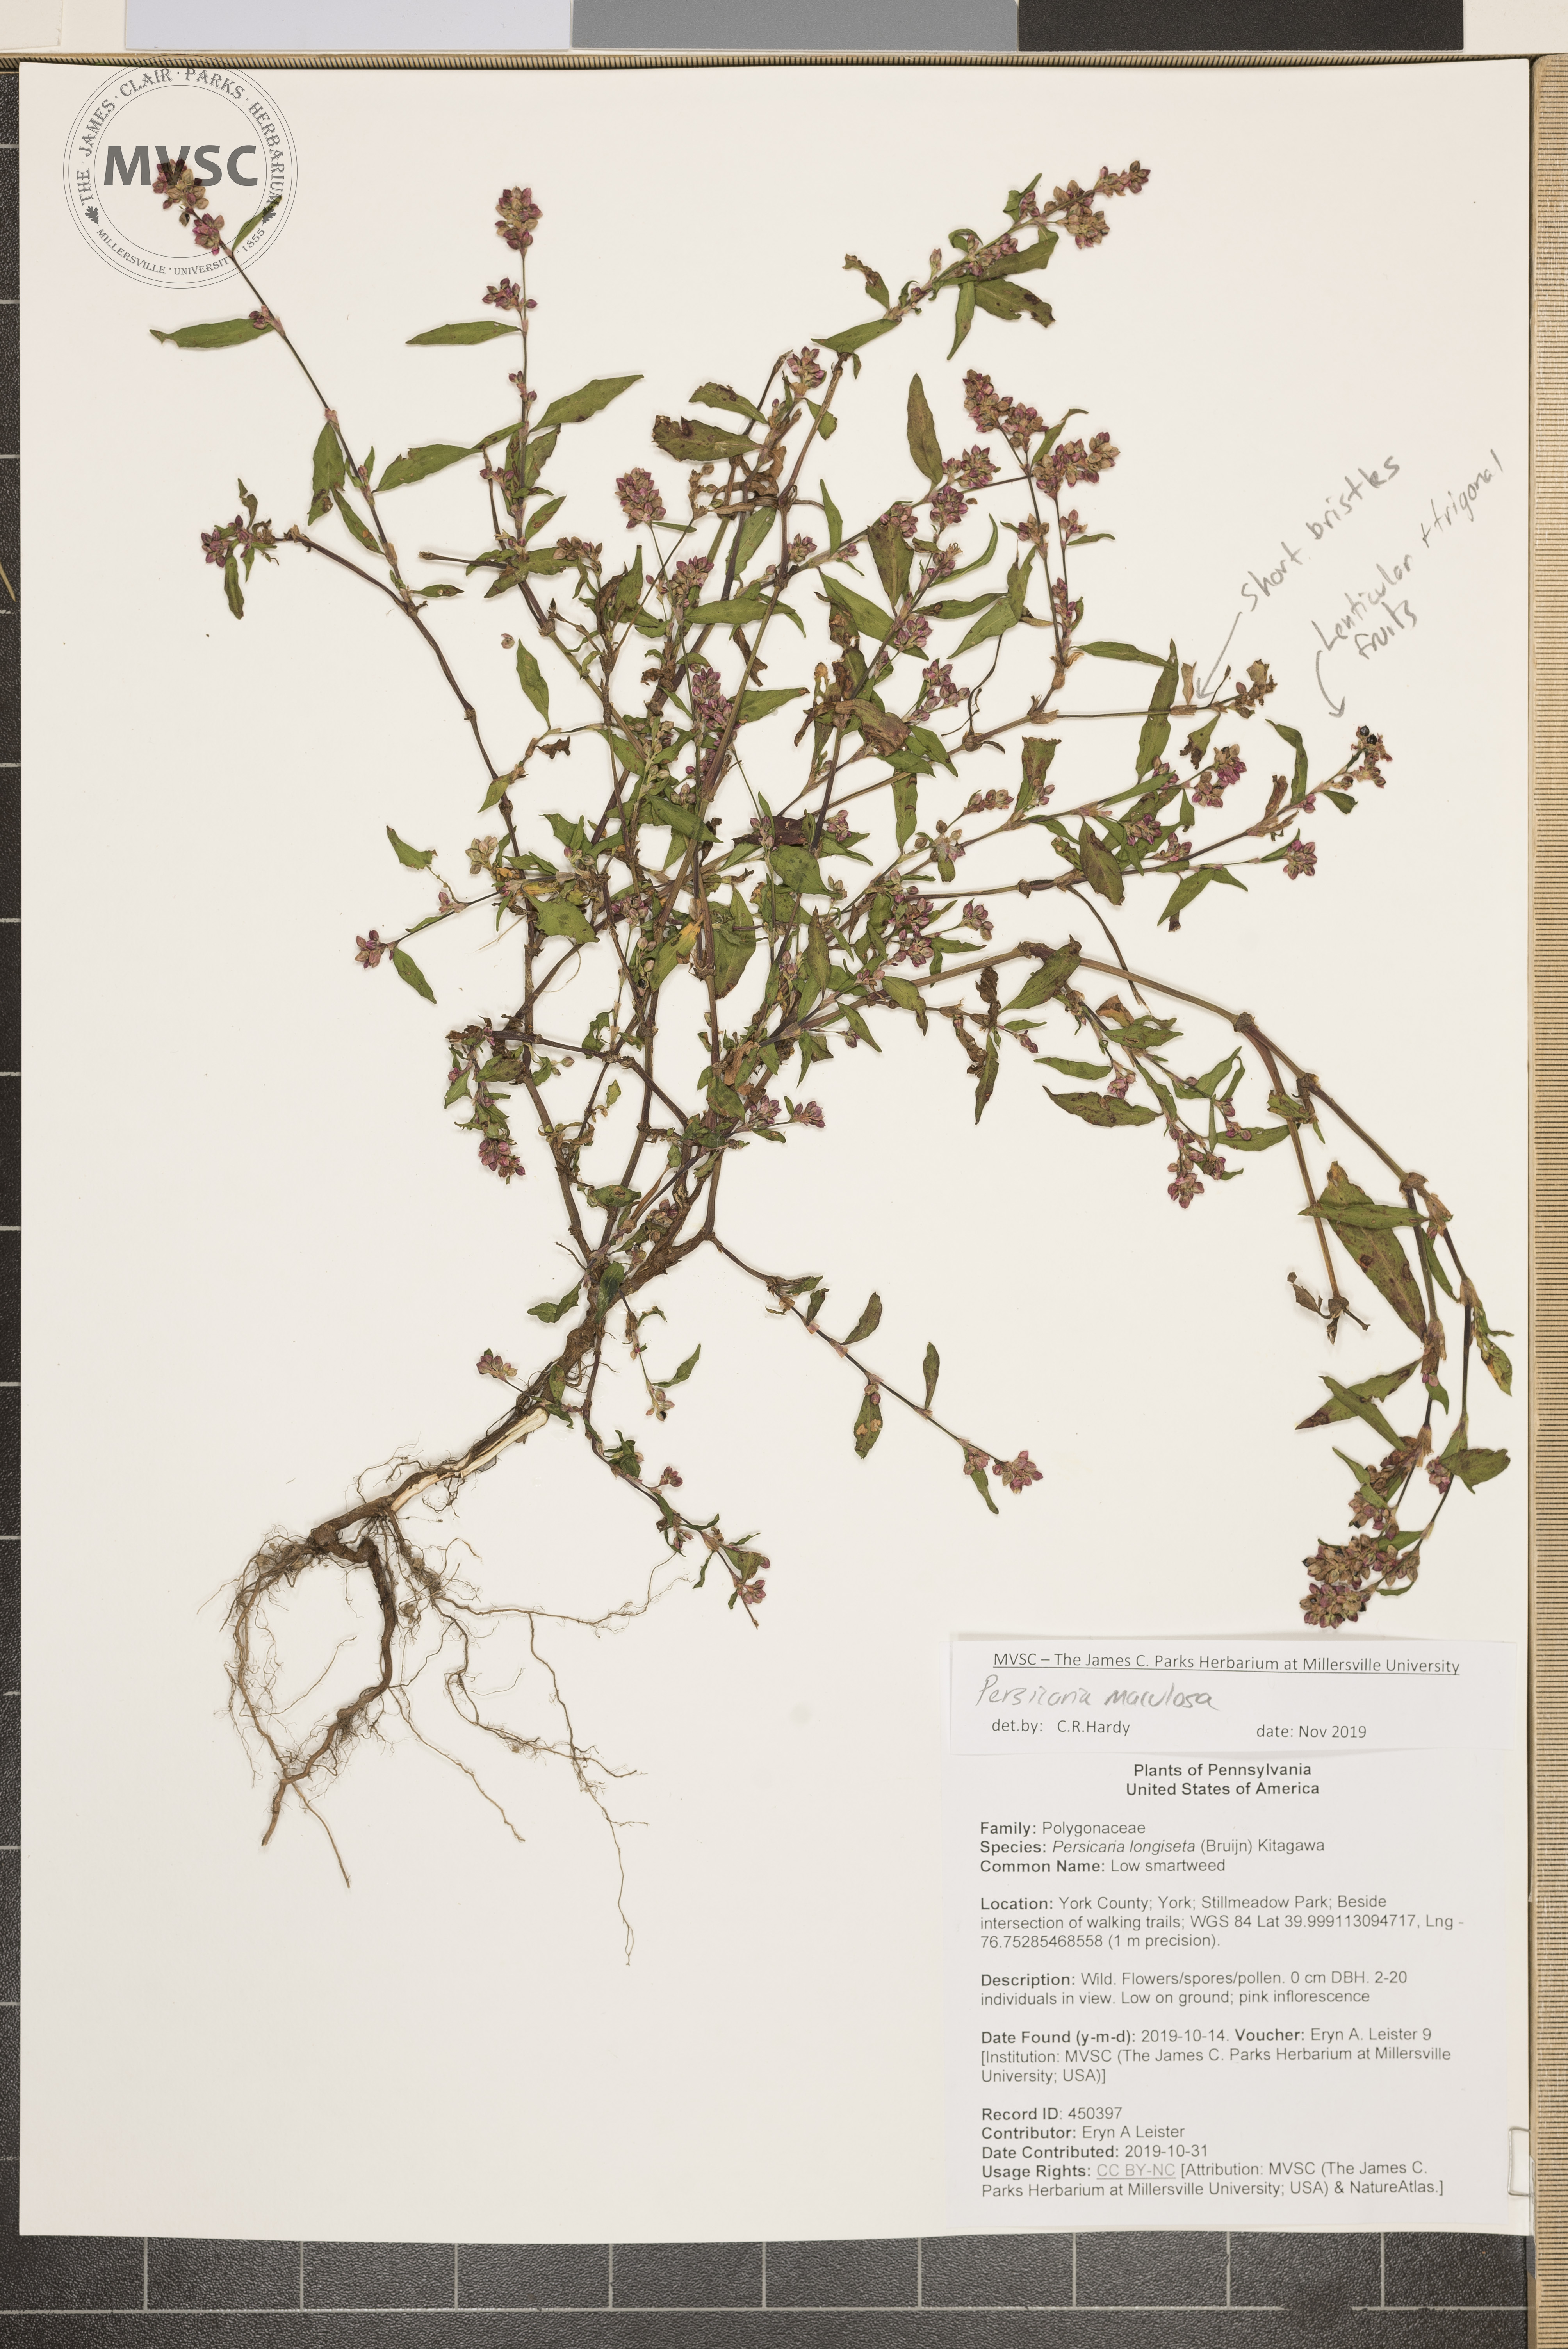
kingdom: Plantae
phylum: Tracheophyta
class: Magnoliopsida
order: Caryophyllales
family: Polygonaceae
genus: Persicaria
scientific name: Persicaria maculosa
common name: lady's-thumb
